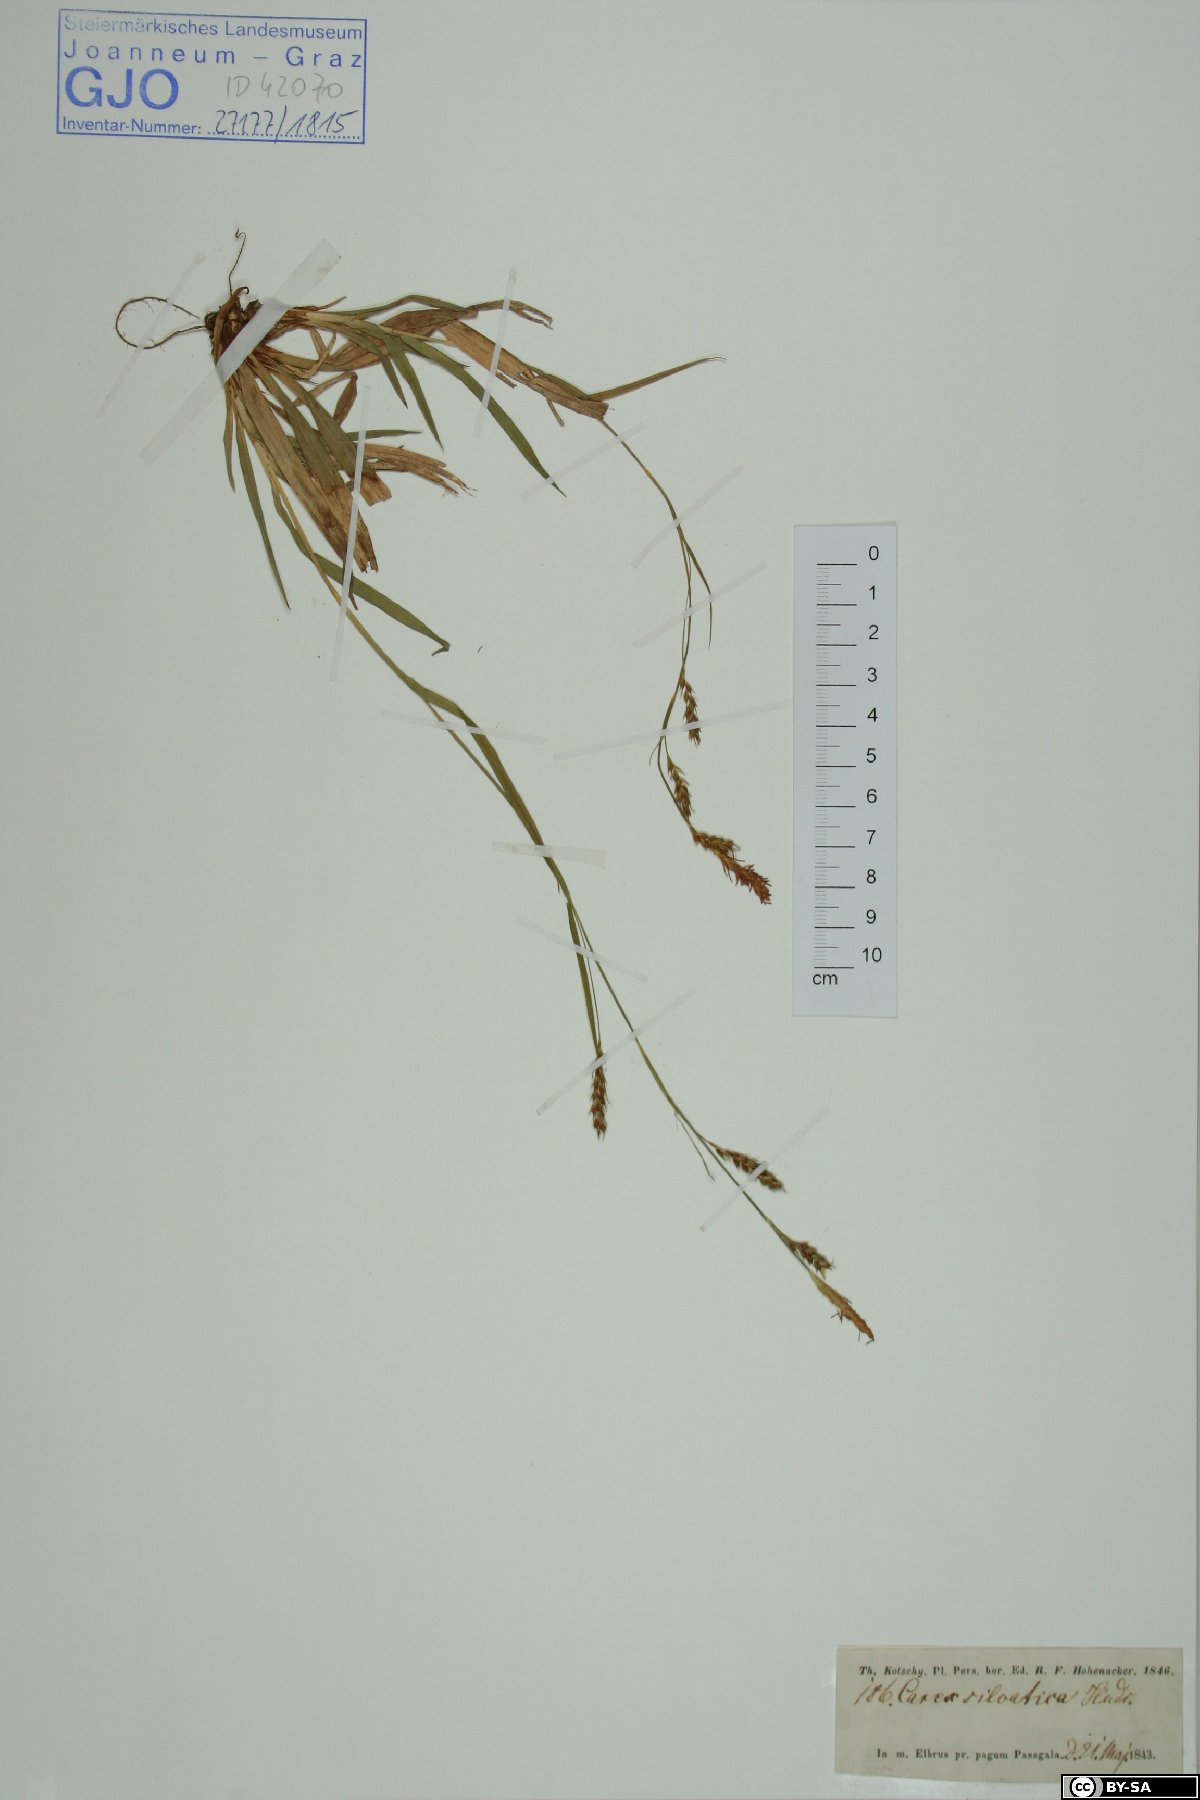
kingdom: Plantae
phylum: Tracheophyta
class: Liliopsida
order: Poales
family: Cyperaceae
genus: Carex
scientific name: Carex sylvatica
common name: Wood-sedge
